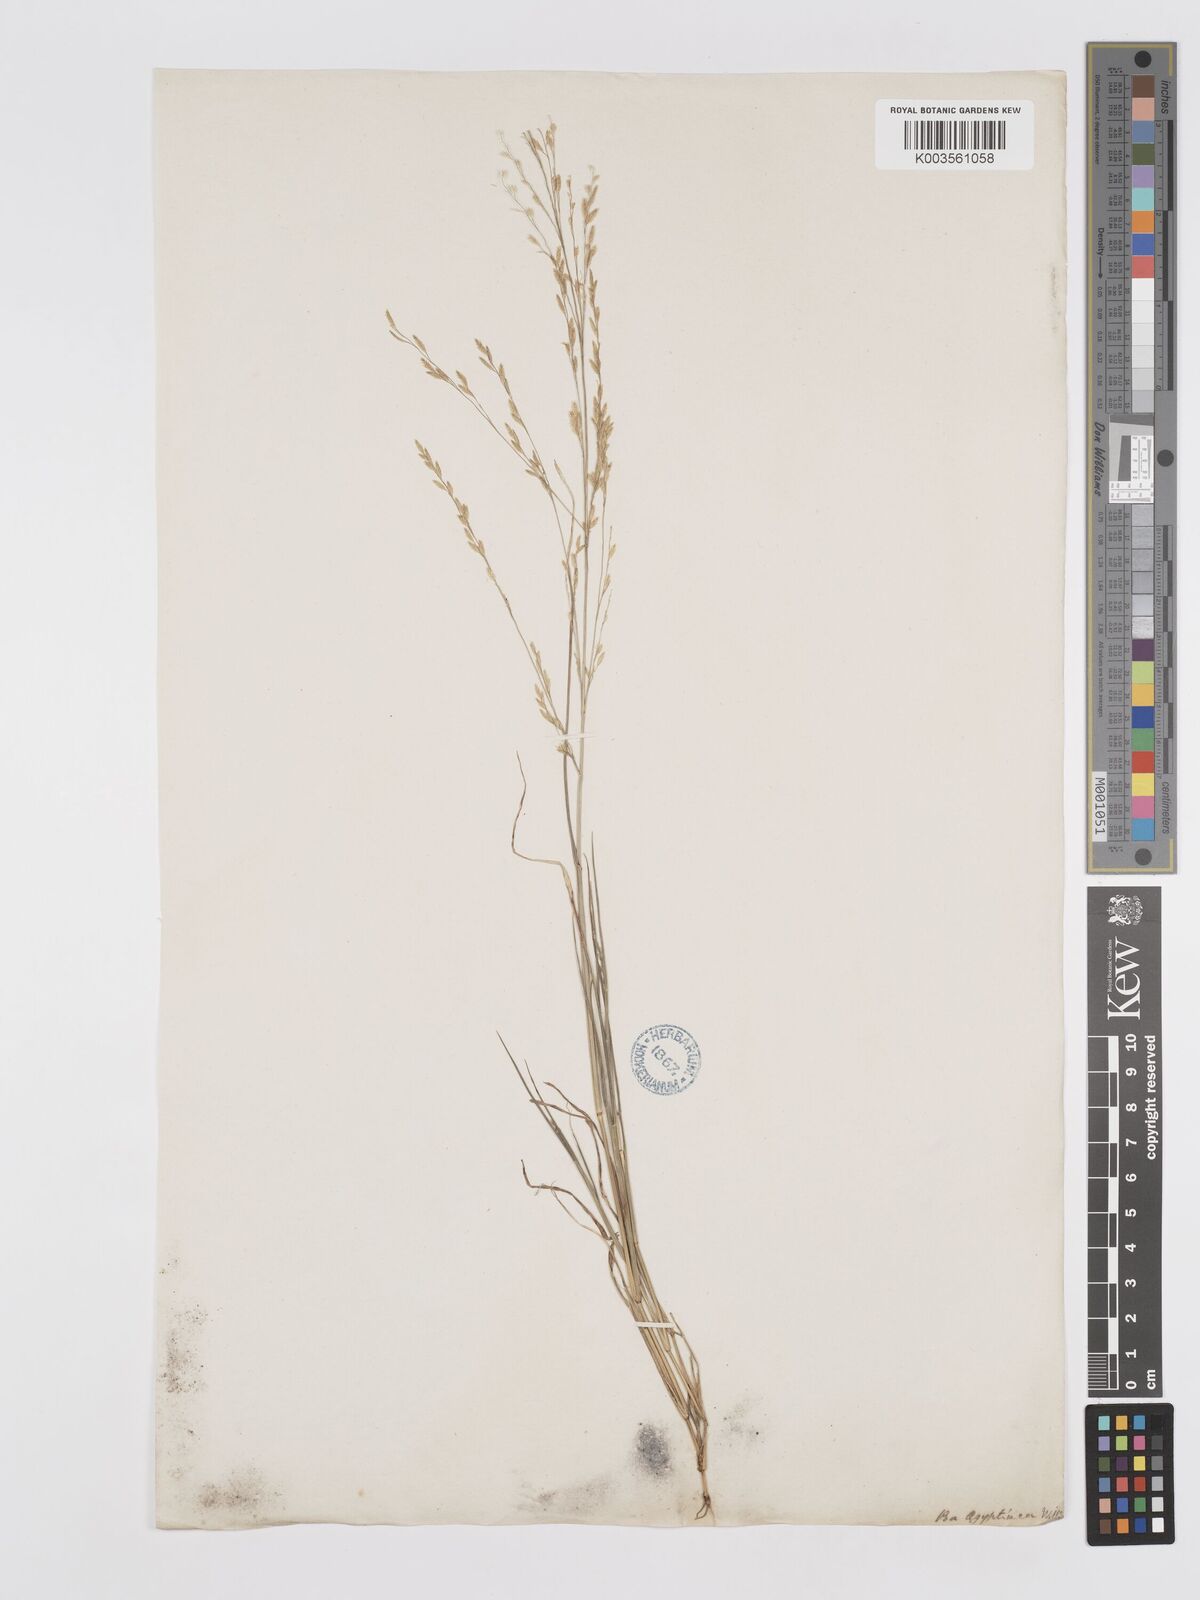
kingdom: Plantae
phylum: Tracheophyta
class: Liliopsida
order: Poales
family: Poaceae
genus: Eragrostis
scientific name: Eragrostis aegyptiaca
